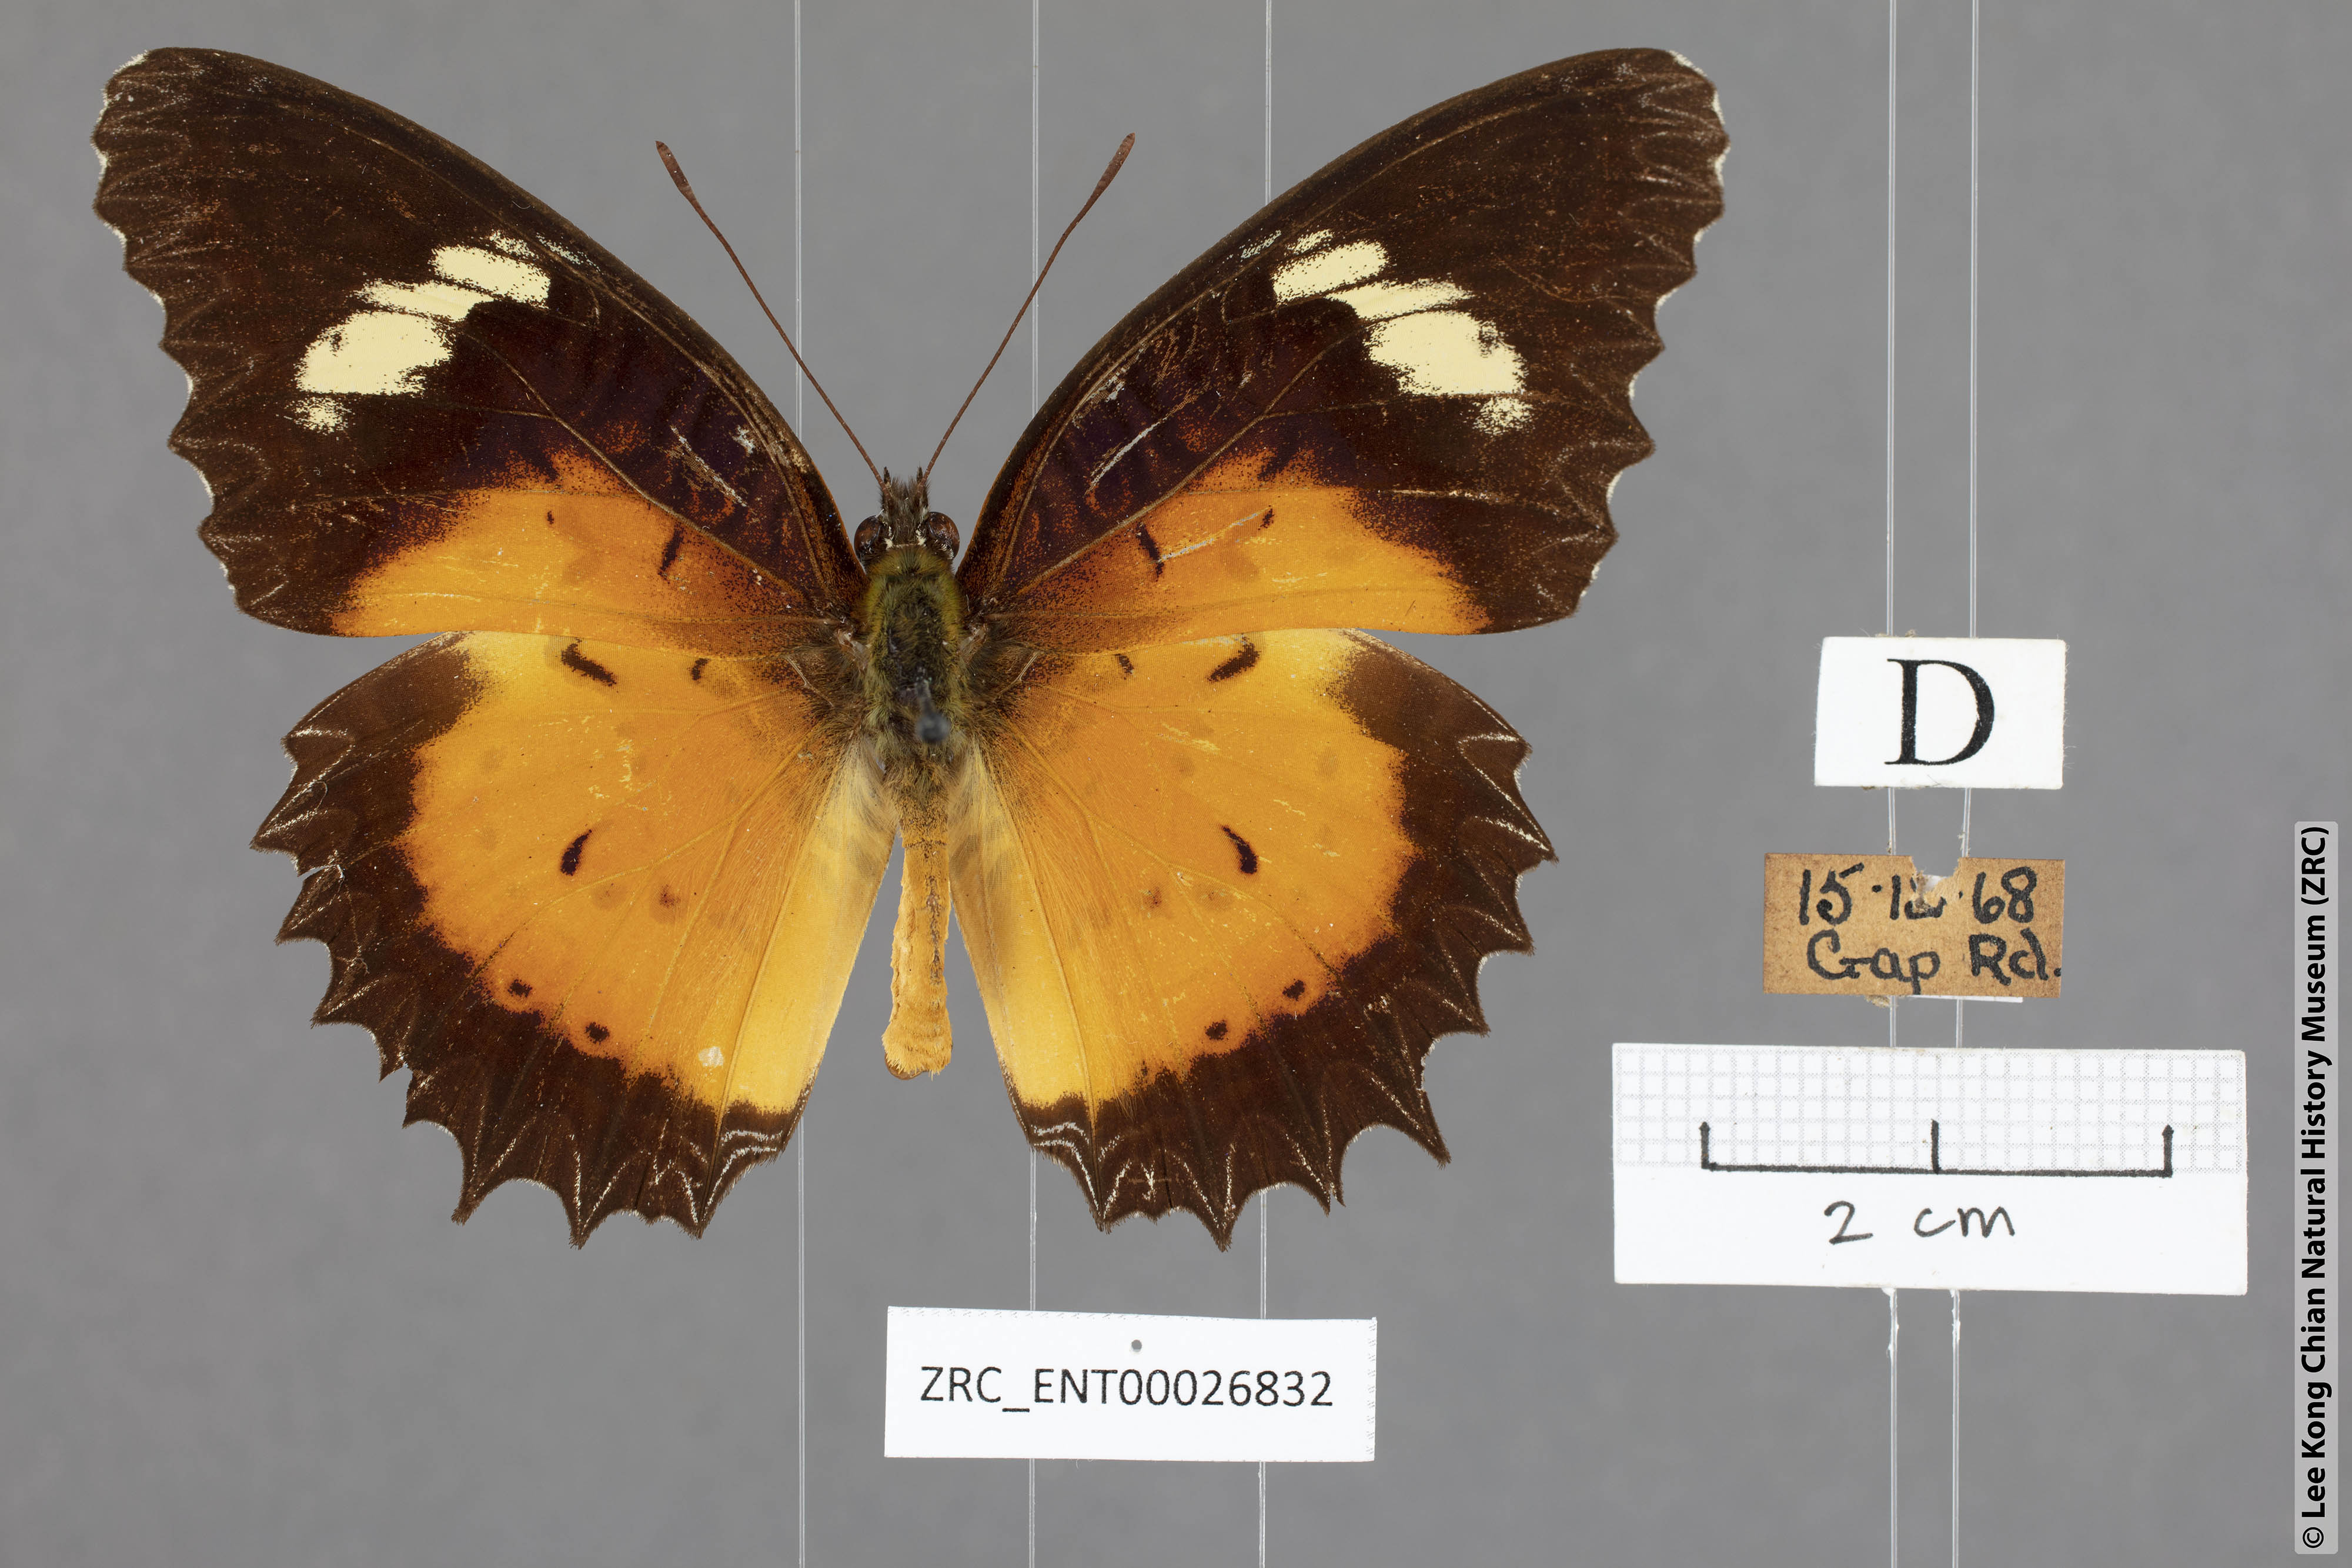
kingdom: Animalia
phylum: Arthropoda
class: Insecta
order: Lepidoptera
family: Nymphalidae
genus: Cethosia
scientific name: Cethosia hypsea
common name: Malayan lacewing butterfly
